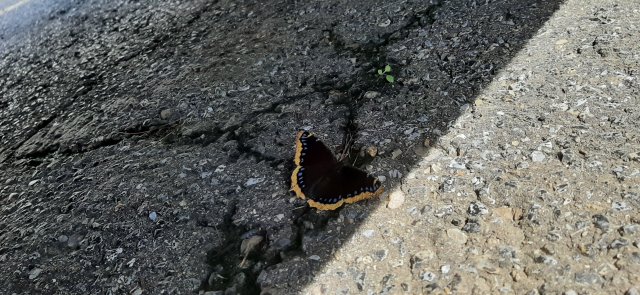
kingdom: Animalia
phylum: Arthropoda
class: Insecta
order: Lepidoptera
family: Nymphalidae
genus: Nymphalis
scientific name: Nymphalis antiopa
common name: Mourning Cloak
